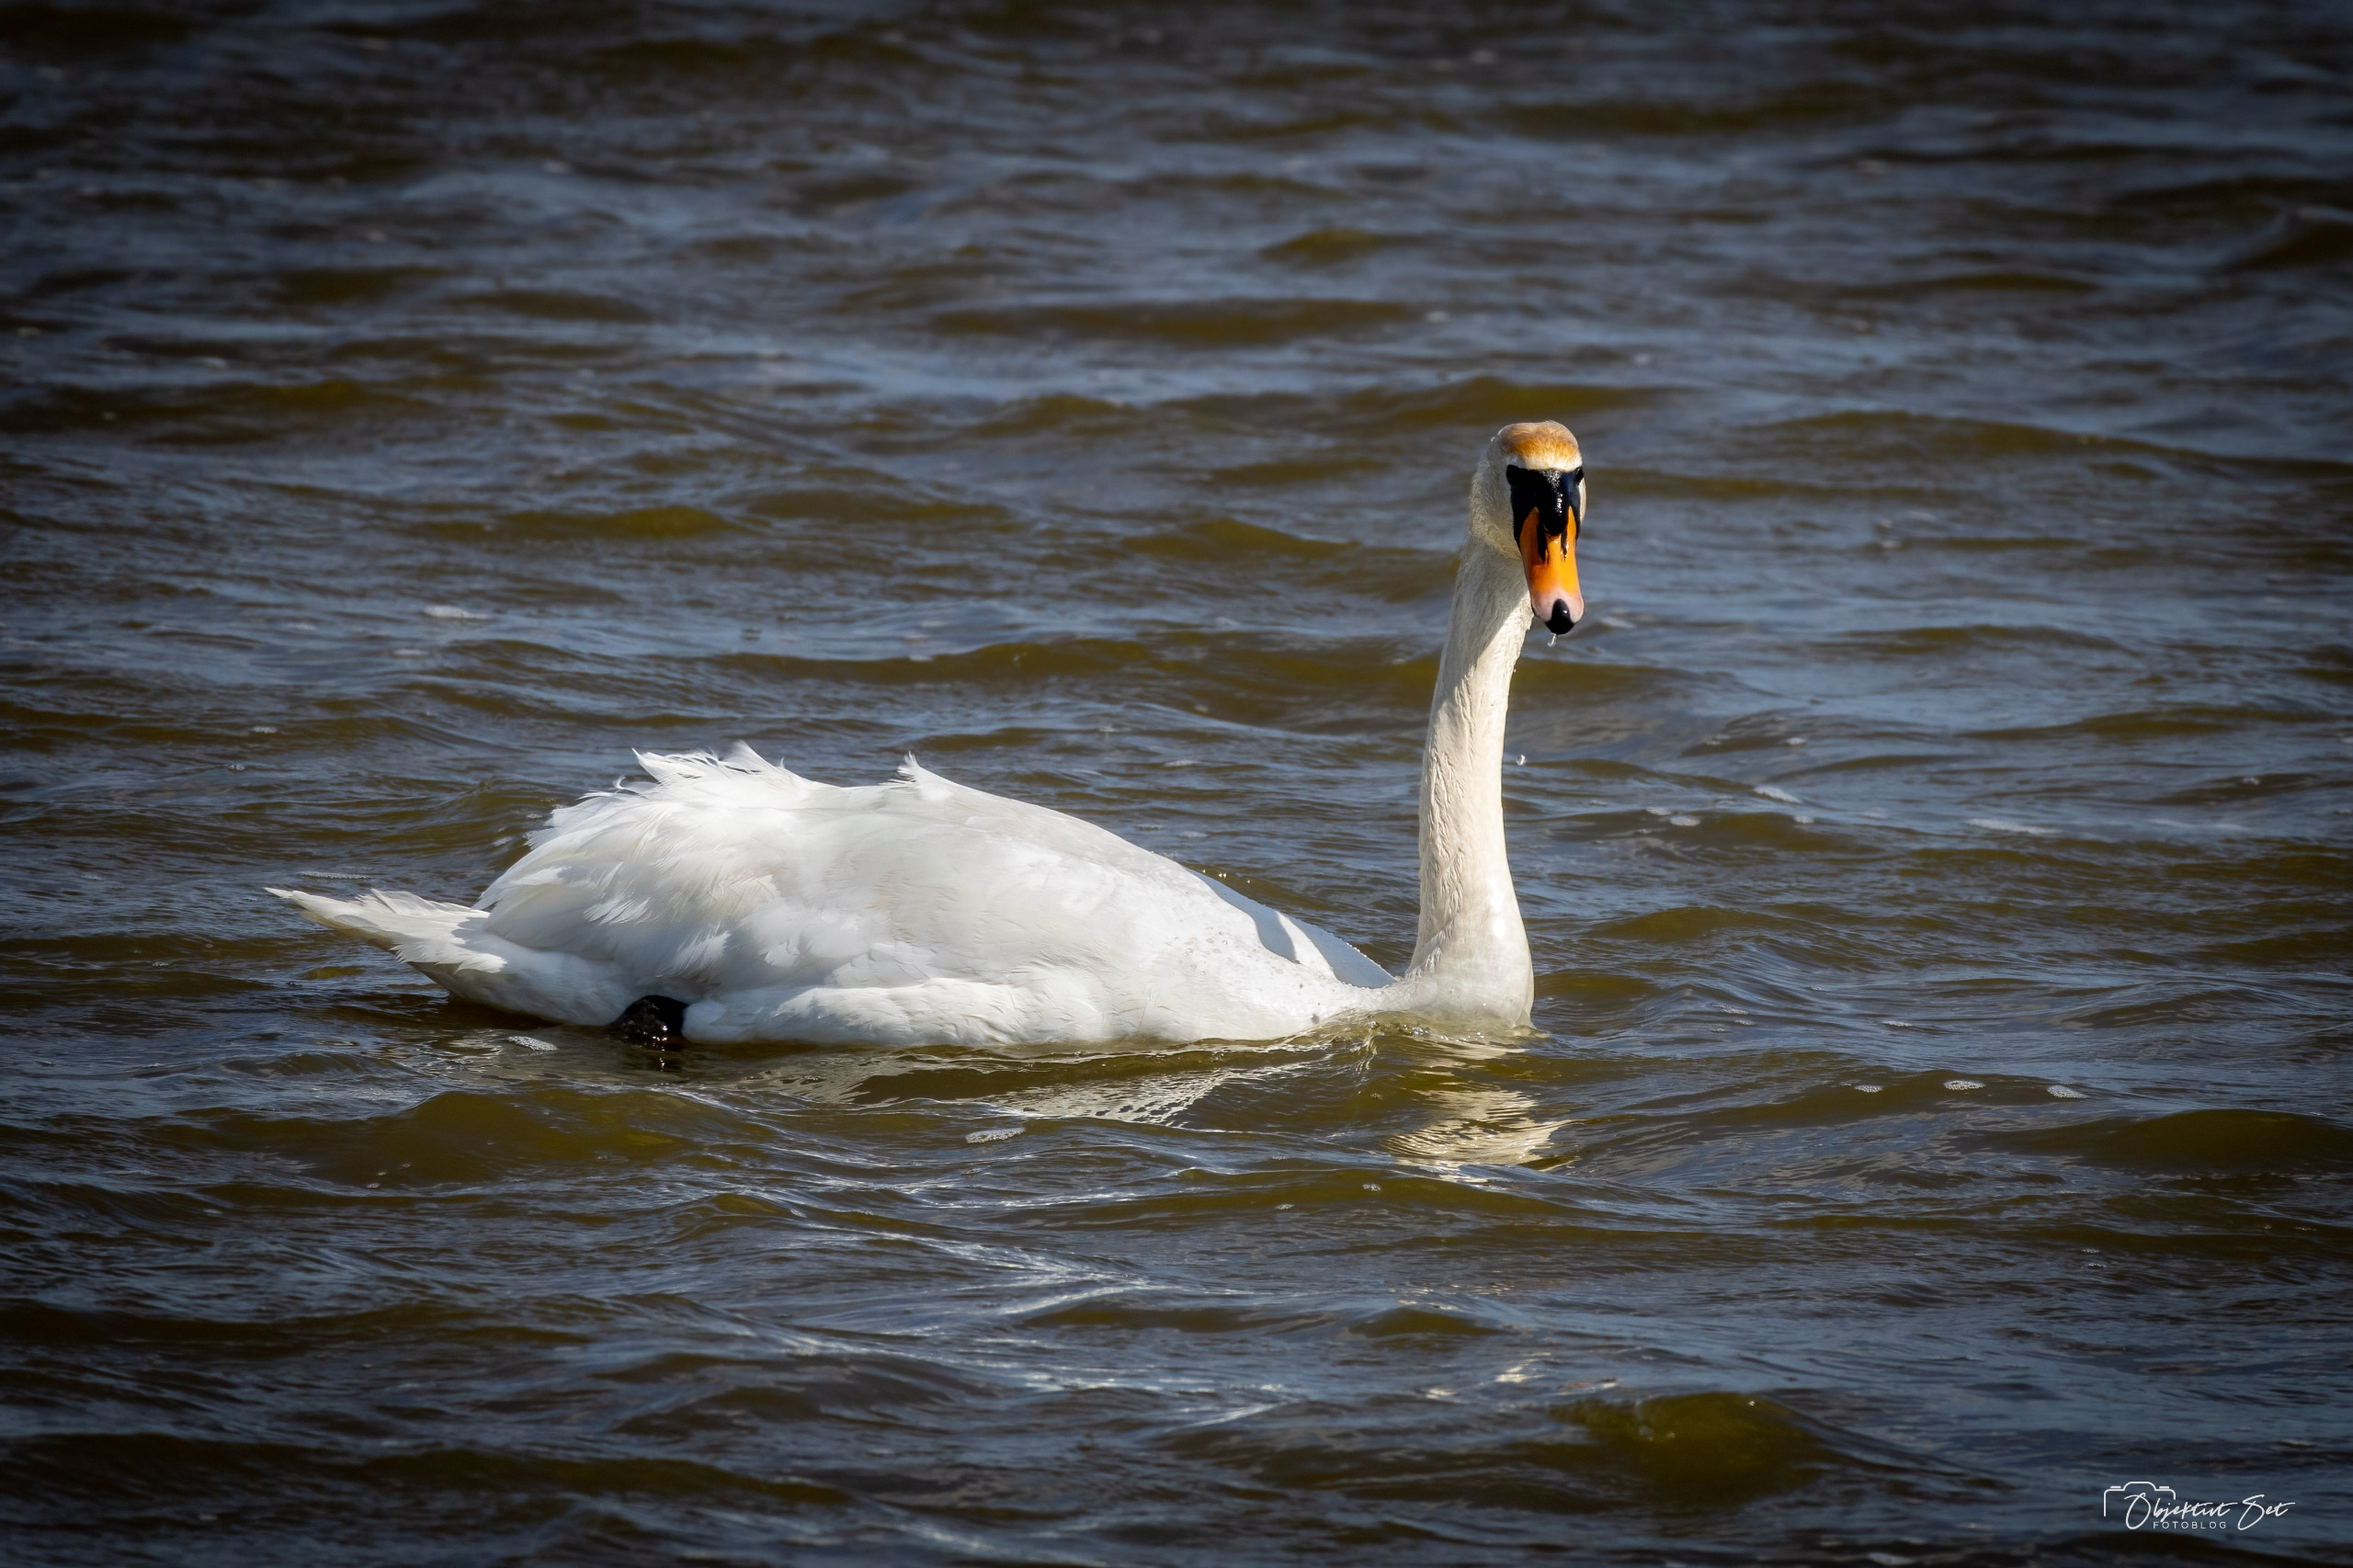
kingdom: Animalia
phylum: Chordata
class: Aves
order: Anseriformes
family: Anatidae
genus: Cygnus
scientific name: Cygnus olor
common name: Knopsvane
